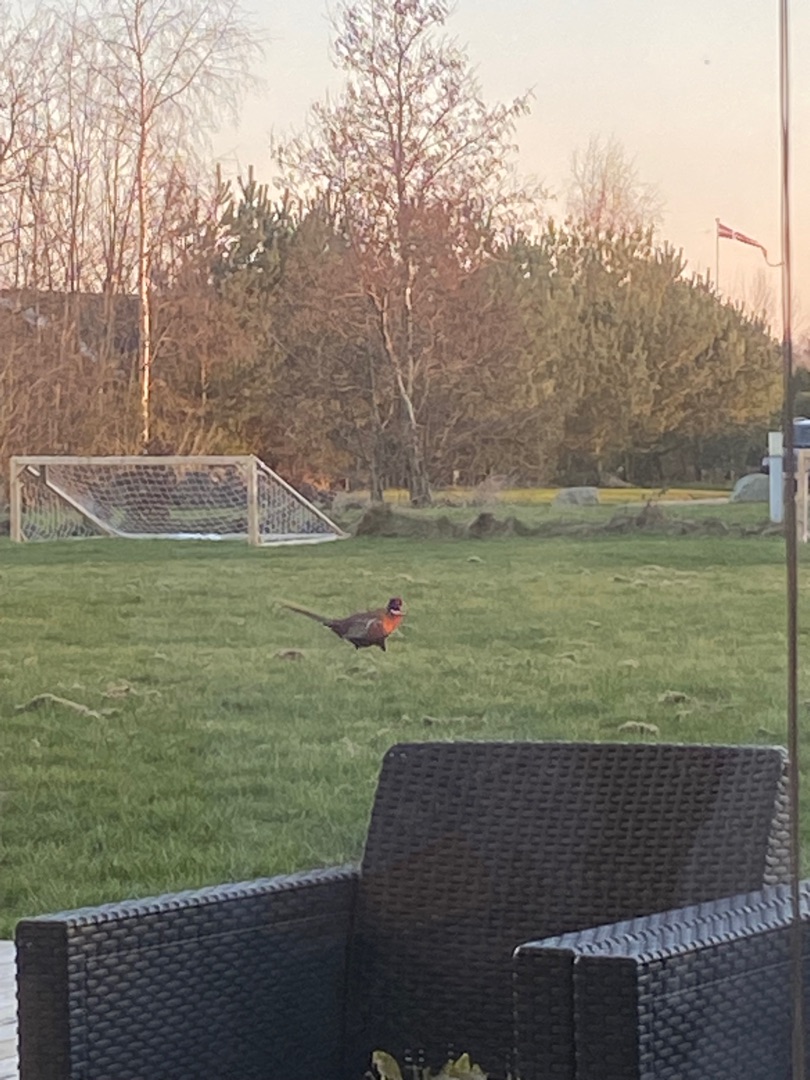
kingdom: Animalia
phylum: Chordata
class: Aves
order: Galliformes
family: Phasianidae
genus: Phasianus
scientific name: Phasianus colchicus
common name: Fasan
